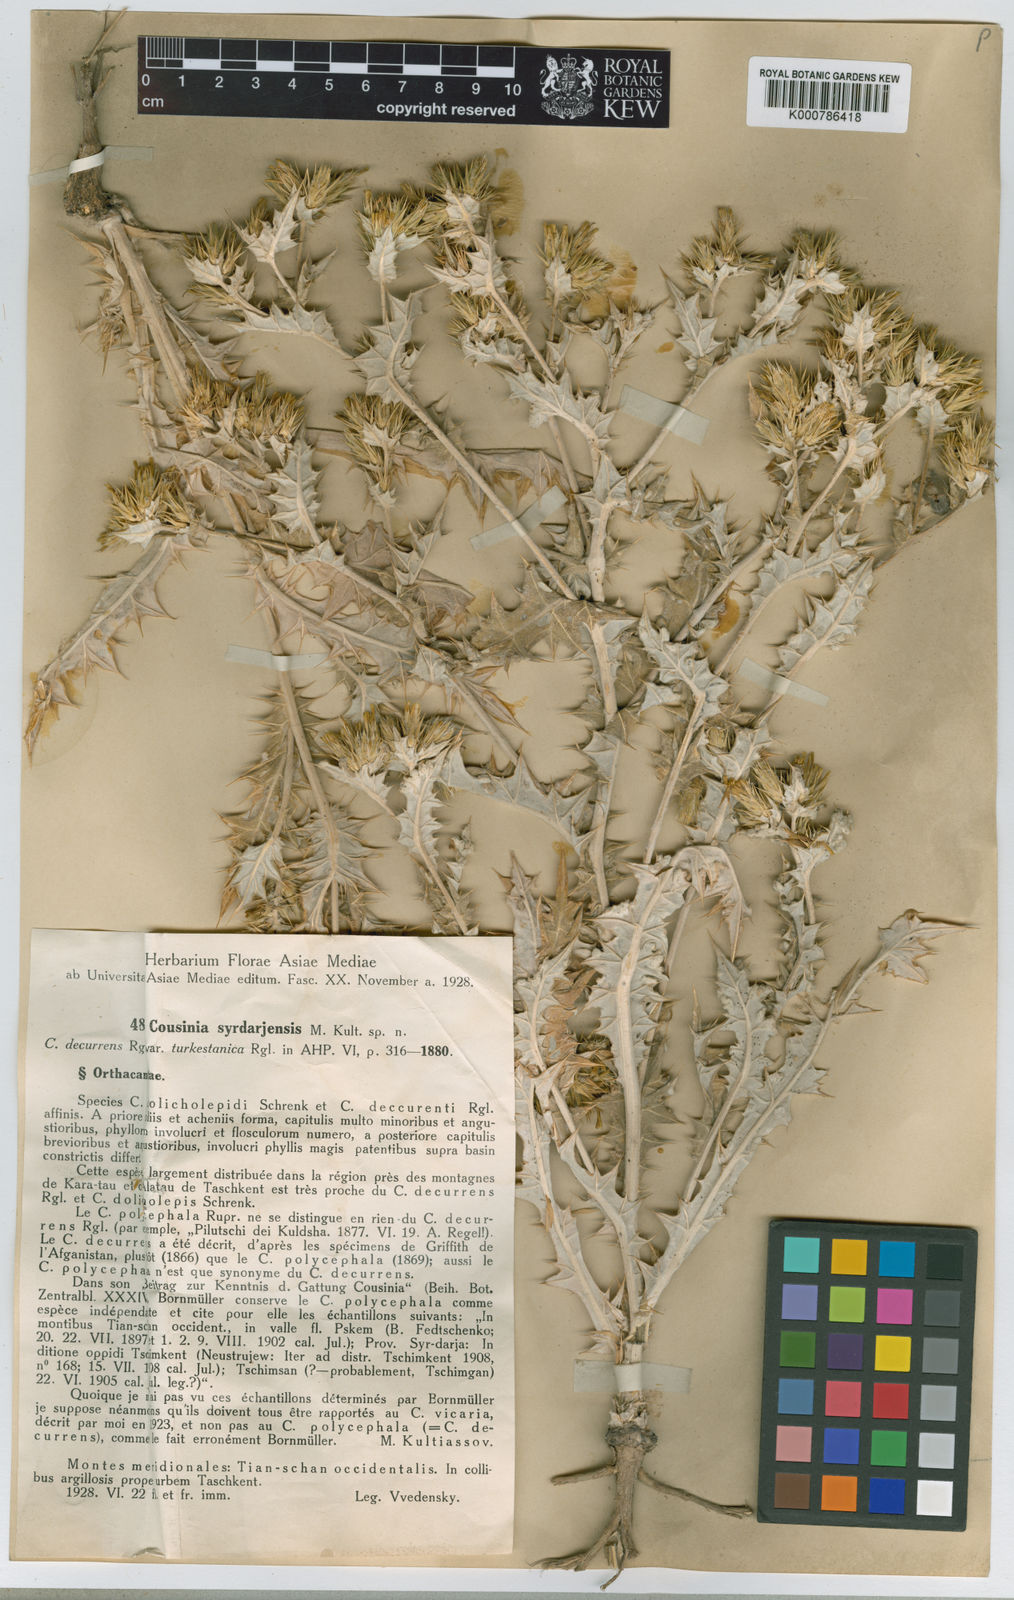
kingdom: Plantae
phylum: Tracheophyta
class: Magnoliopsida
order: Asterales
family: Asteraceae
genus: Cousinia
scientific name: Cousinia turkestanica
